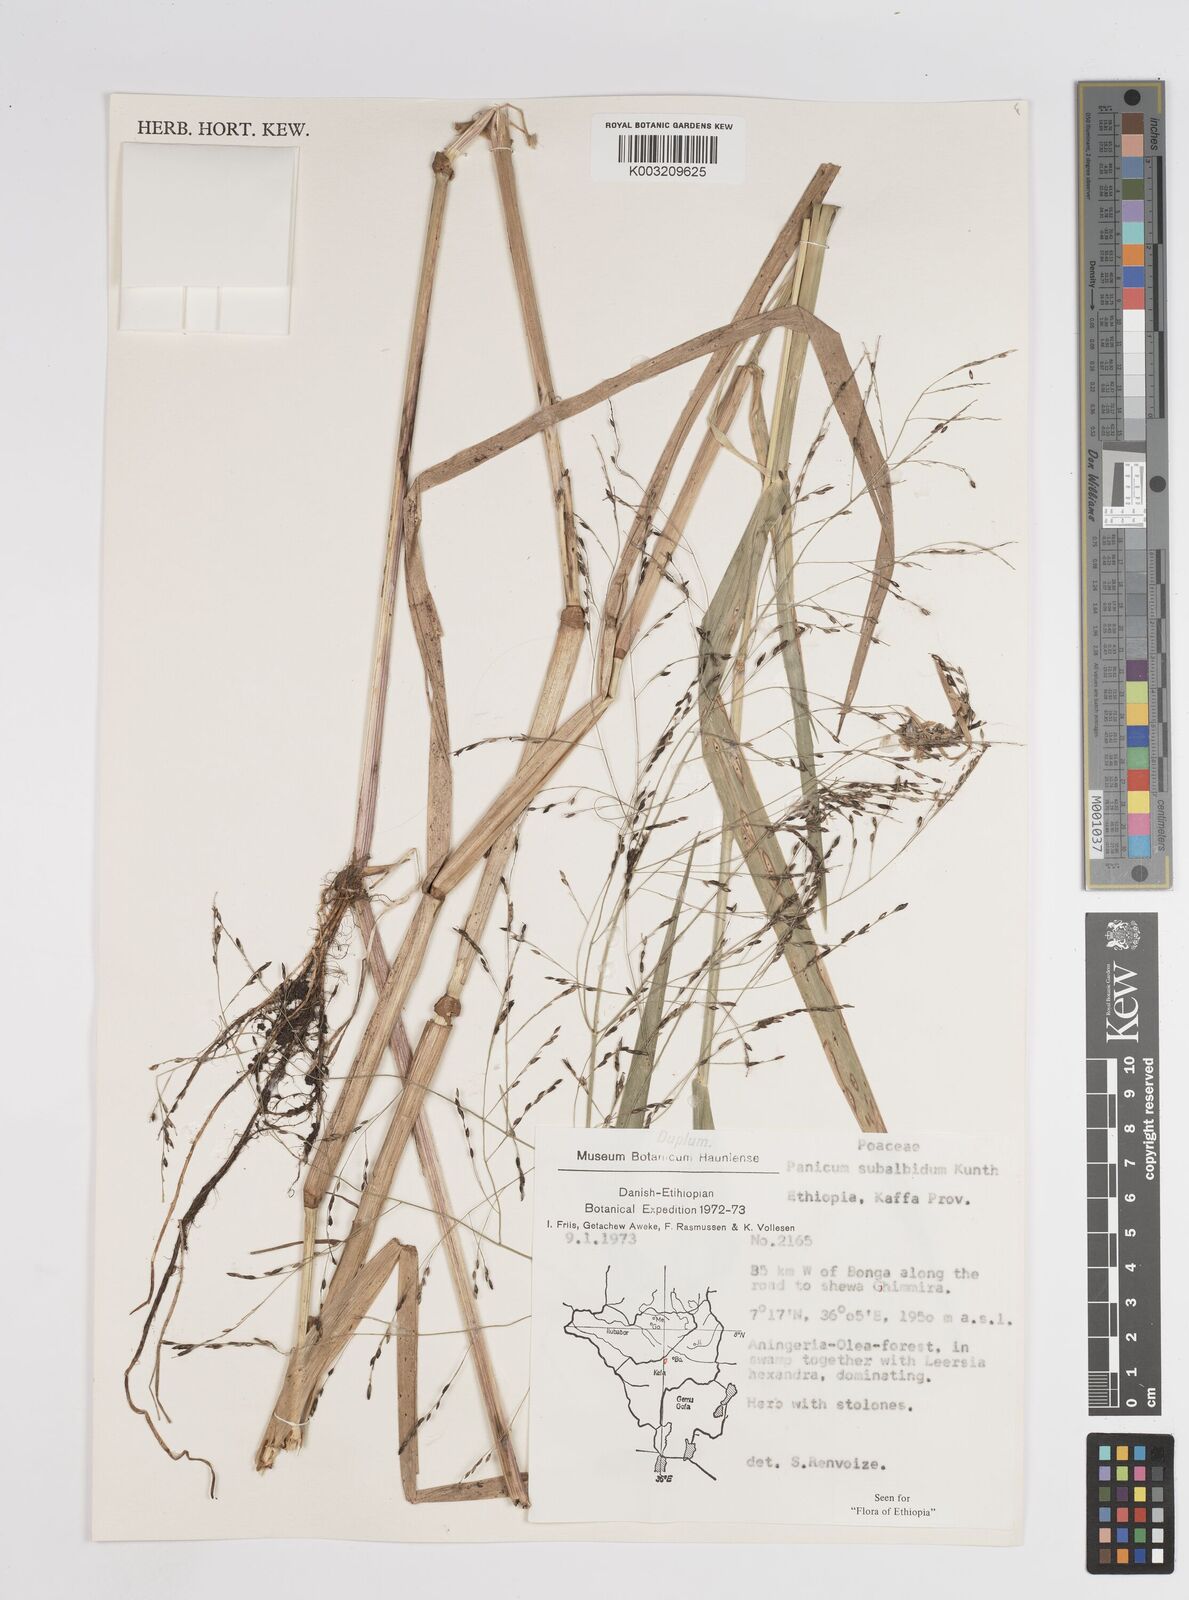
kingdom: Plantae
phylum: Tracheophyta
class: Liliopsida
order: Poales
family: Poaceae
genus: Panicum
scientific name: Panicum subalbidum
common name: Elbow buffalo grass
